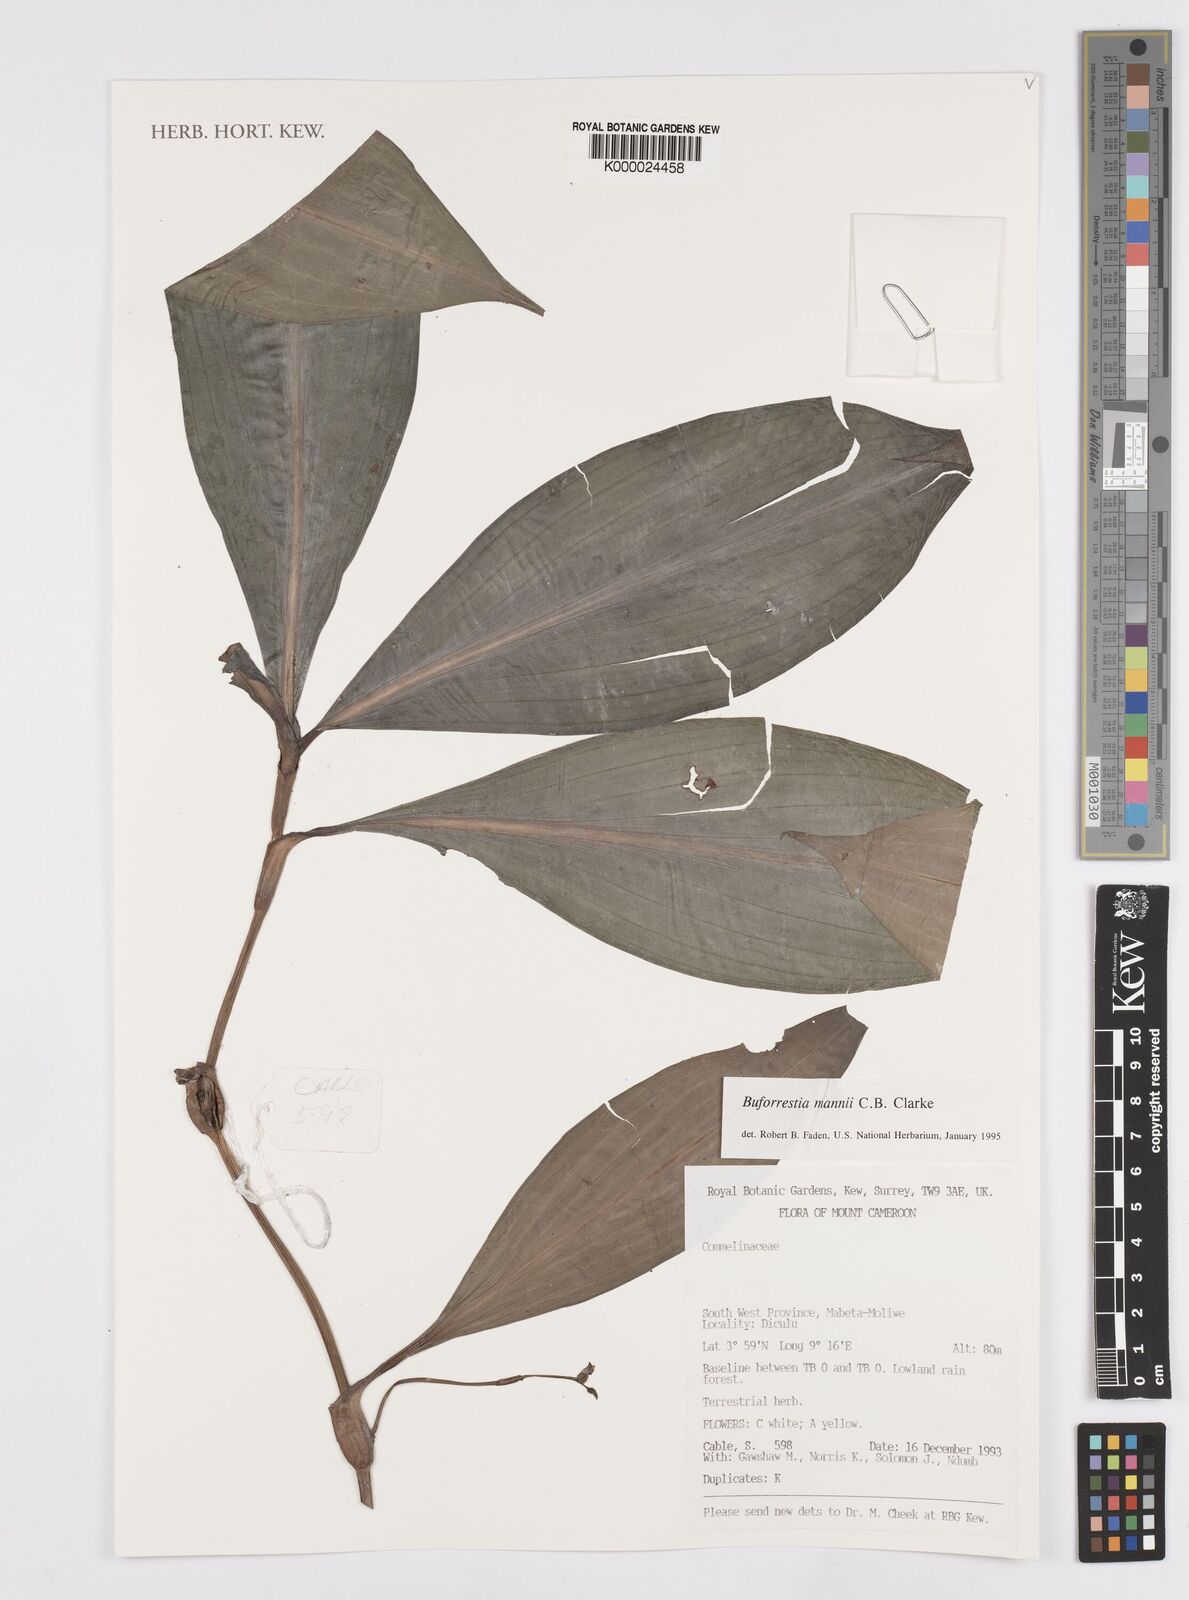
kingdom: Plantae
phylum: Tracheophyta
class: Liliopsida
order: Commelinales
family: Commelinaceae
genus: Buforrestia
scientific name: Buforrestia mannii
